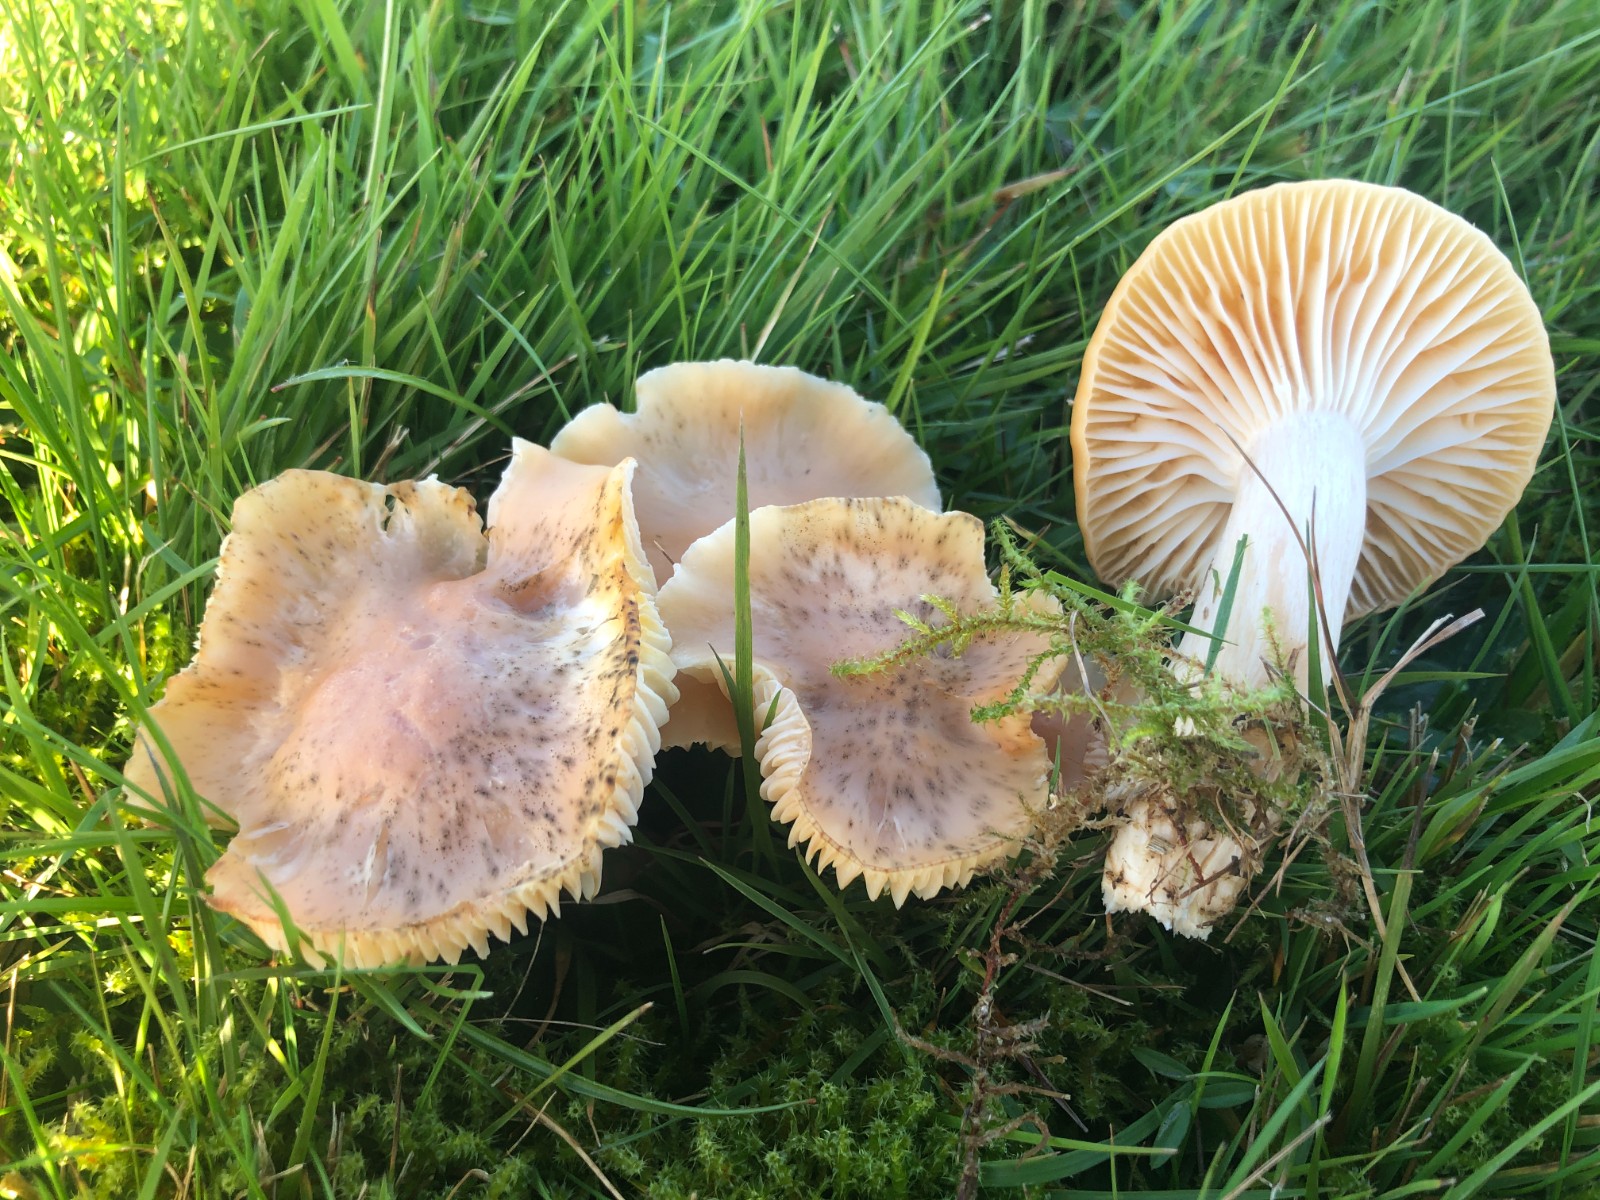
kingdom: Fungi
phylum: Basidiomycota
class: Agaricomycetes
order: Agaricales
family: Hygrophoraceae
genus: Cuphophyllus
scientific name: Cuphophyllus pratensis
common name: eng-vokshat
